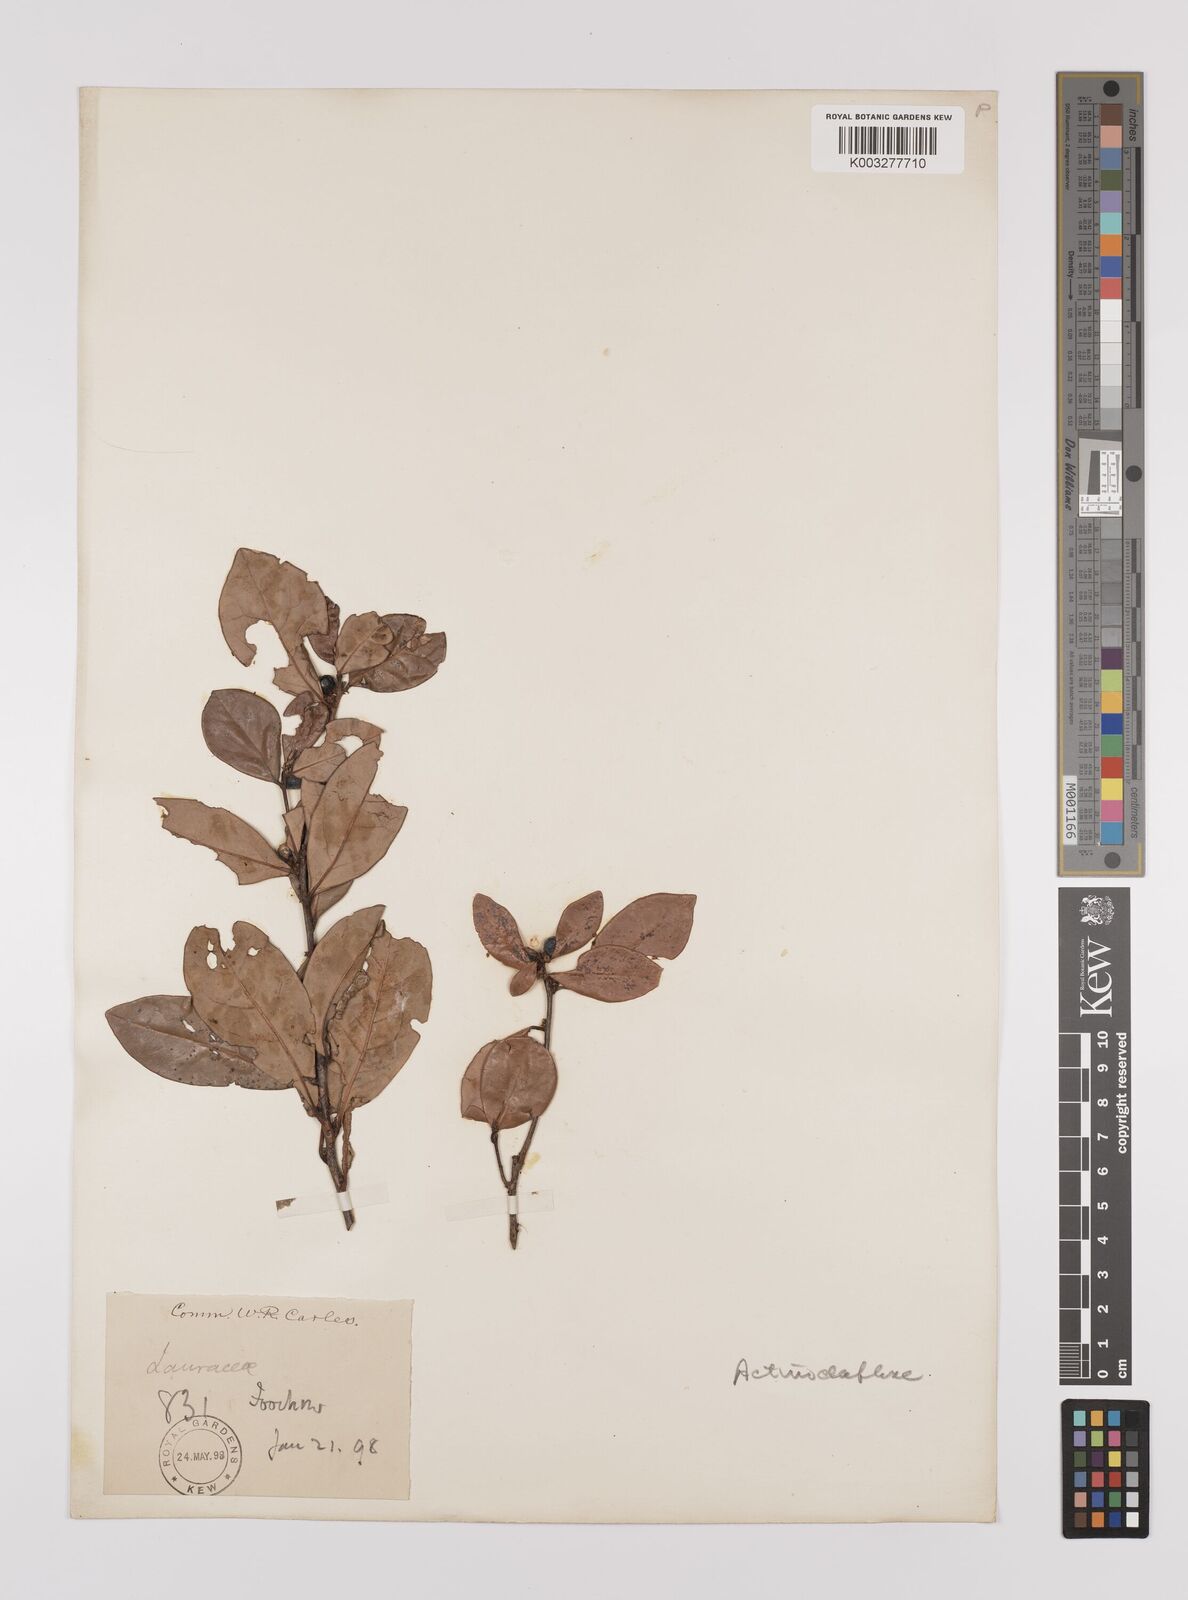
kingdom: Plantae
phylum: Tracheophyta
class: Magnoliopsida
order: Laurales
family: Lauraceae
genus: Litsea
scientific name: Litsea rotundifolia
